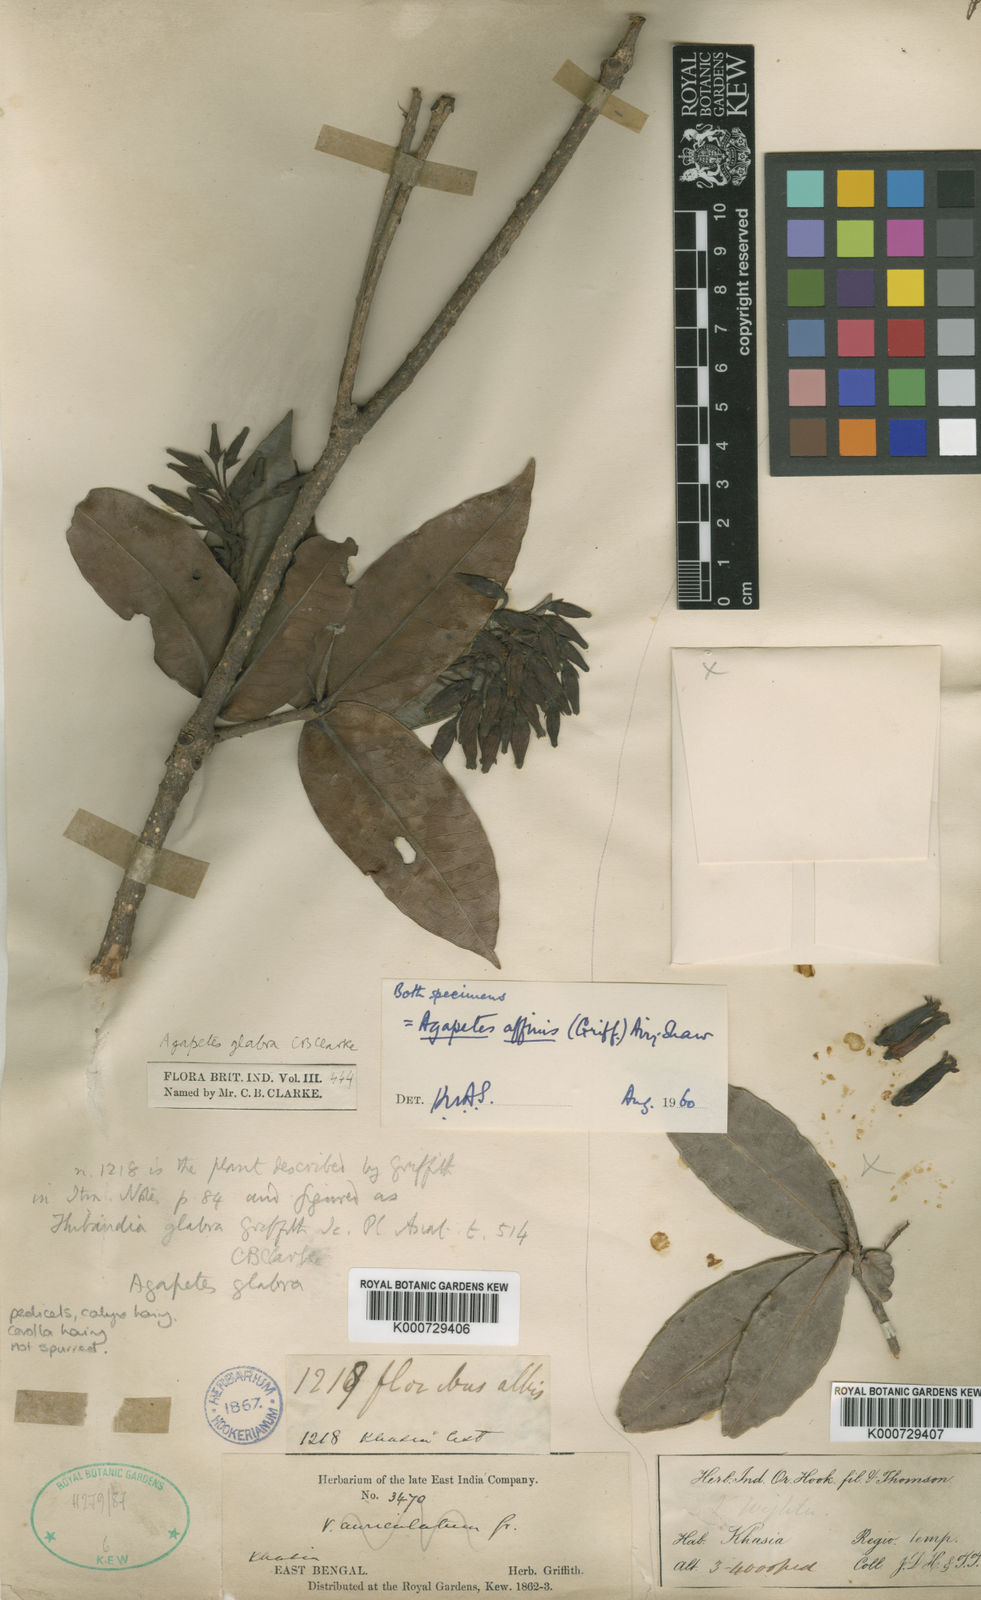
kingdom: Plantae
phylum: Tracheophyta
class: Magnoliopsida
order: Ericales
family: Ericaceae
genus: Agapetes
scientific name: Agapetes affinis
